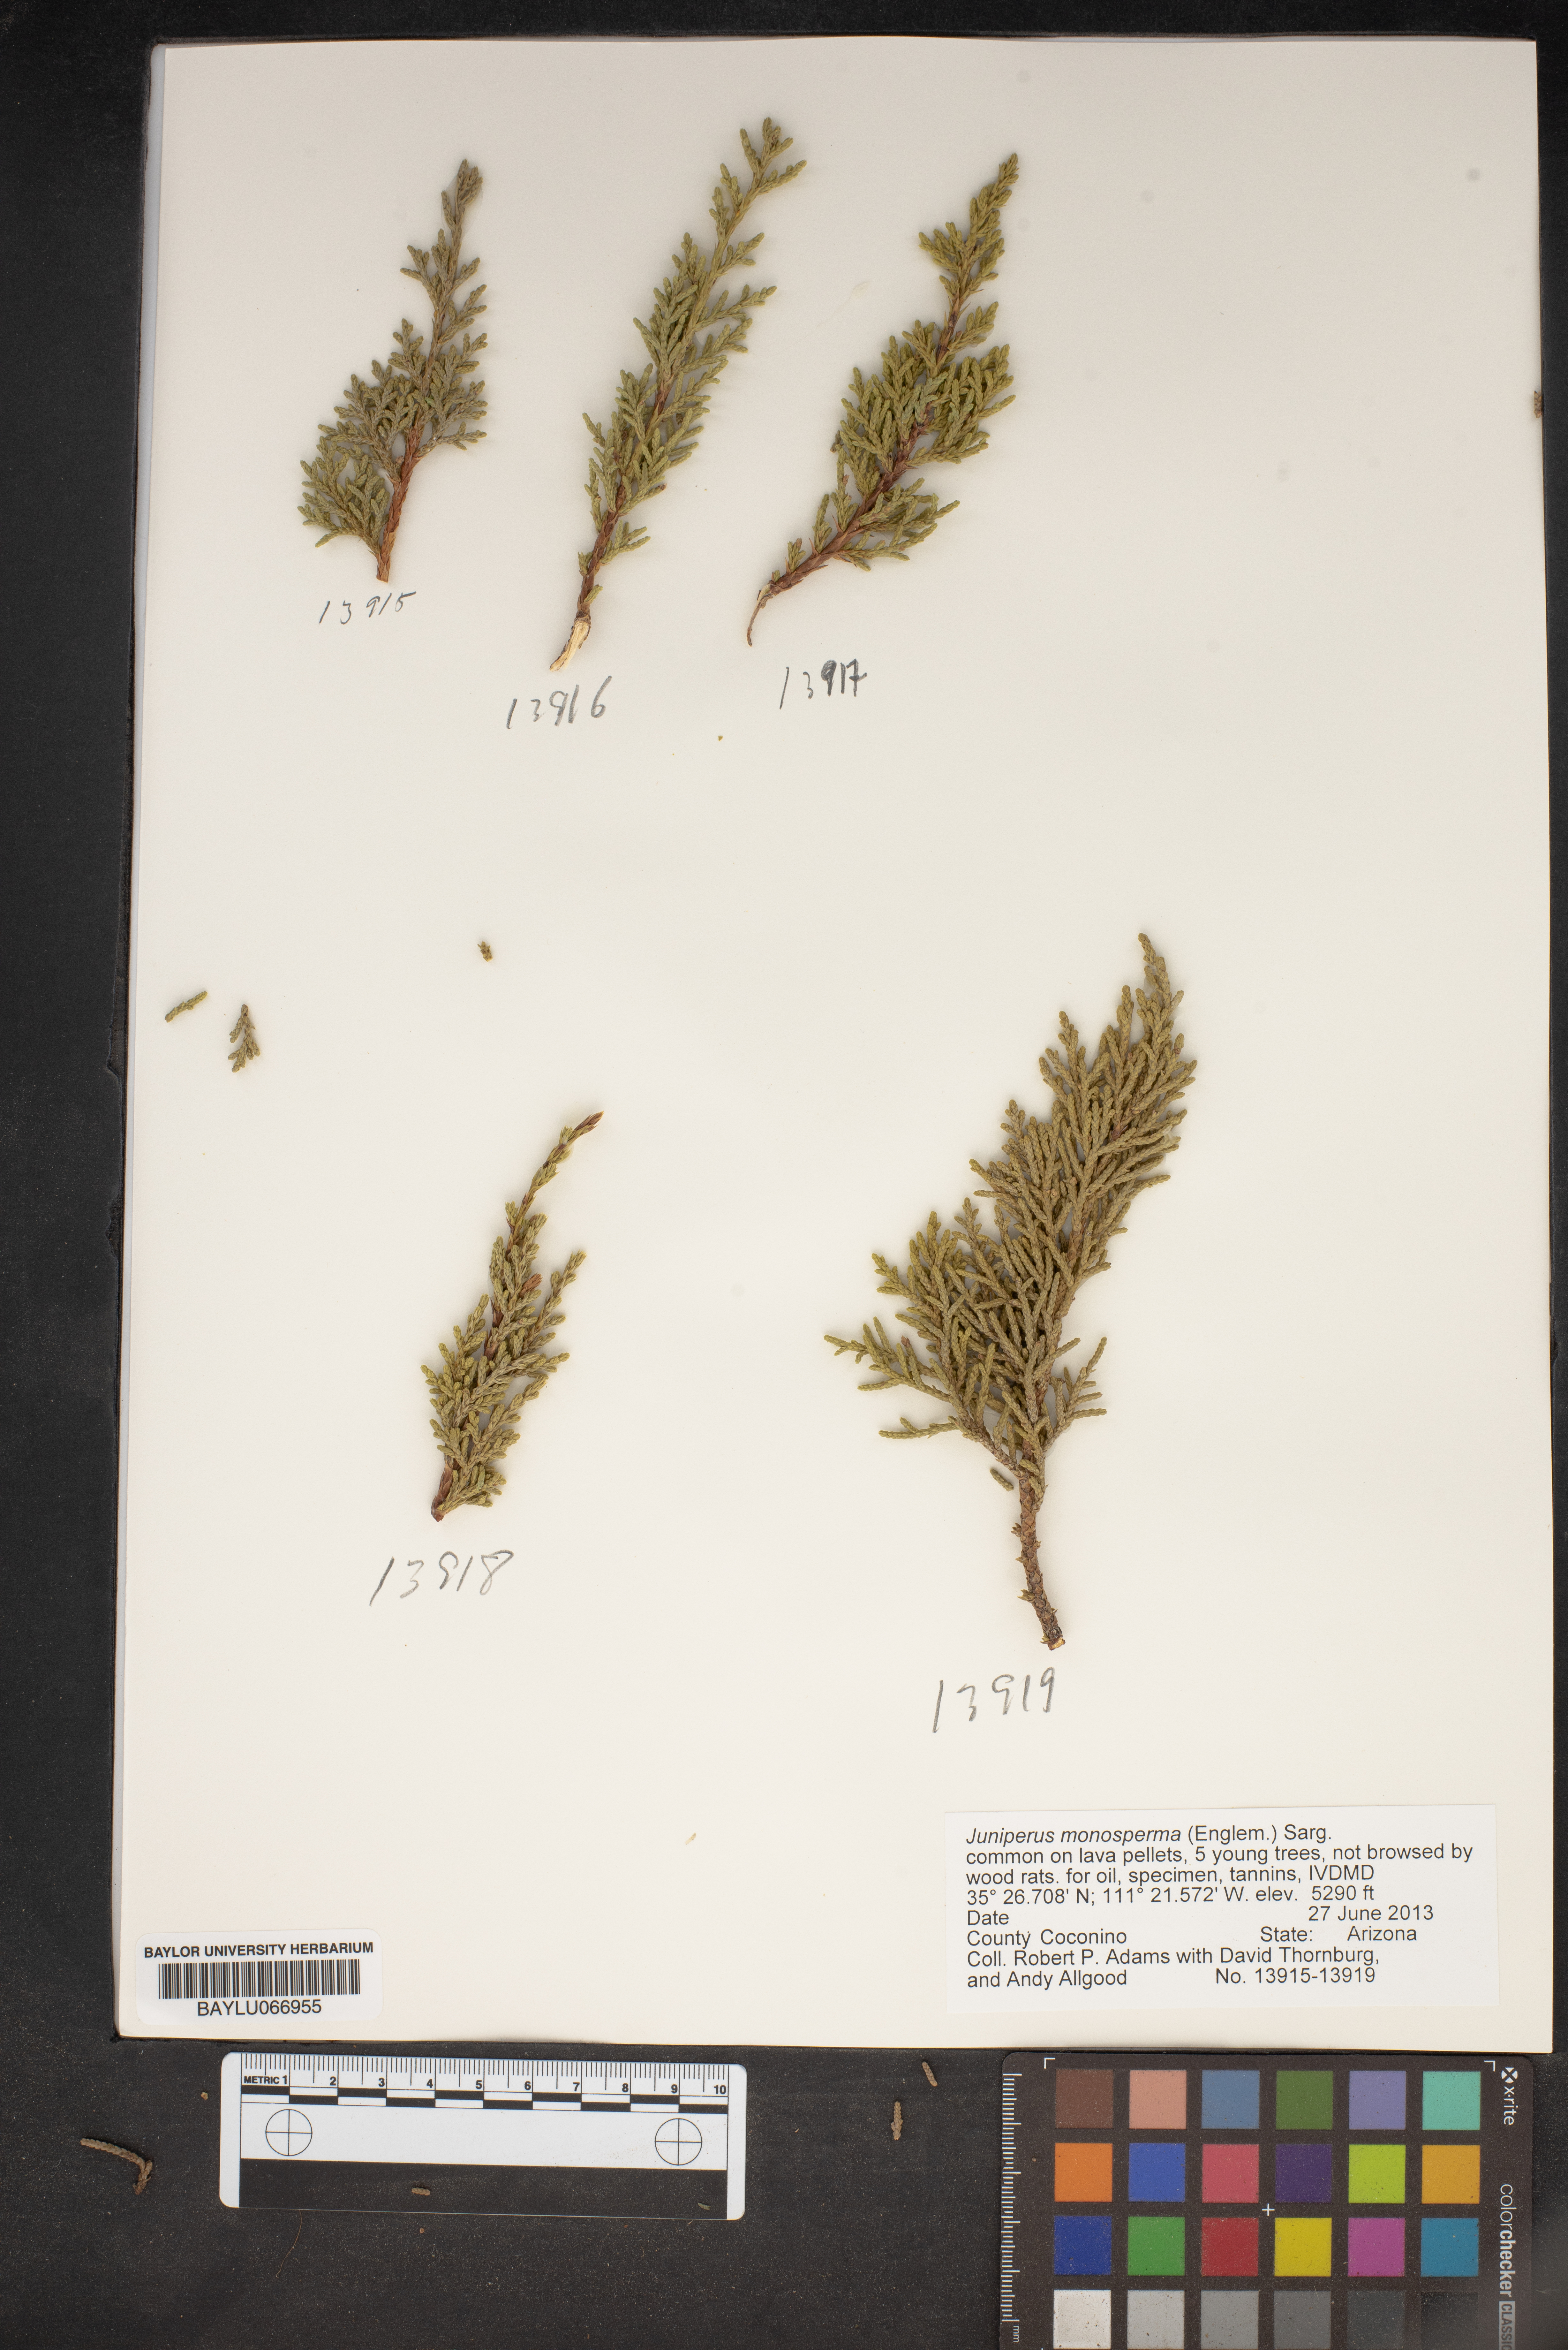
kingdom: Plantae
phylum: Tracheophyta
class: Pinopsida
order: Pinales
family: Cupressaceae
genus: Juniperus
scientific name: Juniperus monosperma
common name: One-seed juniper
